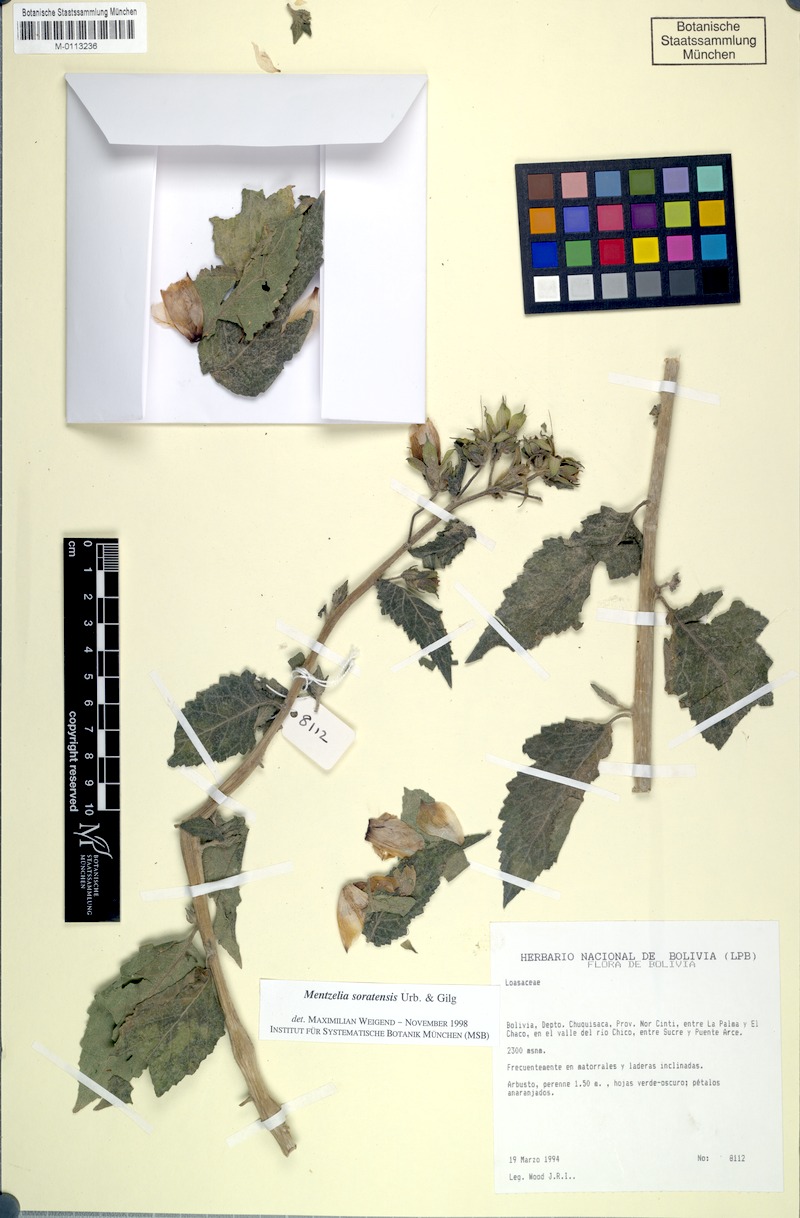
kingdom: Plantae
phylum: Tracheophyta
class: Magnoliopsida
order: Cornales
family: Loasaceae
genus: Mentzelia
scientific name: Mentzelia scabra
